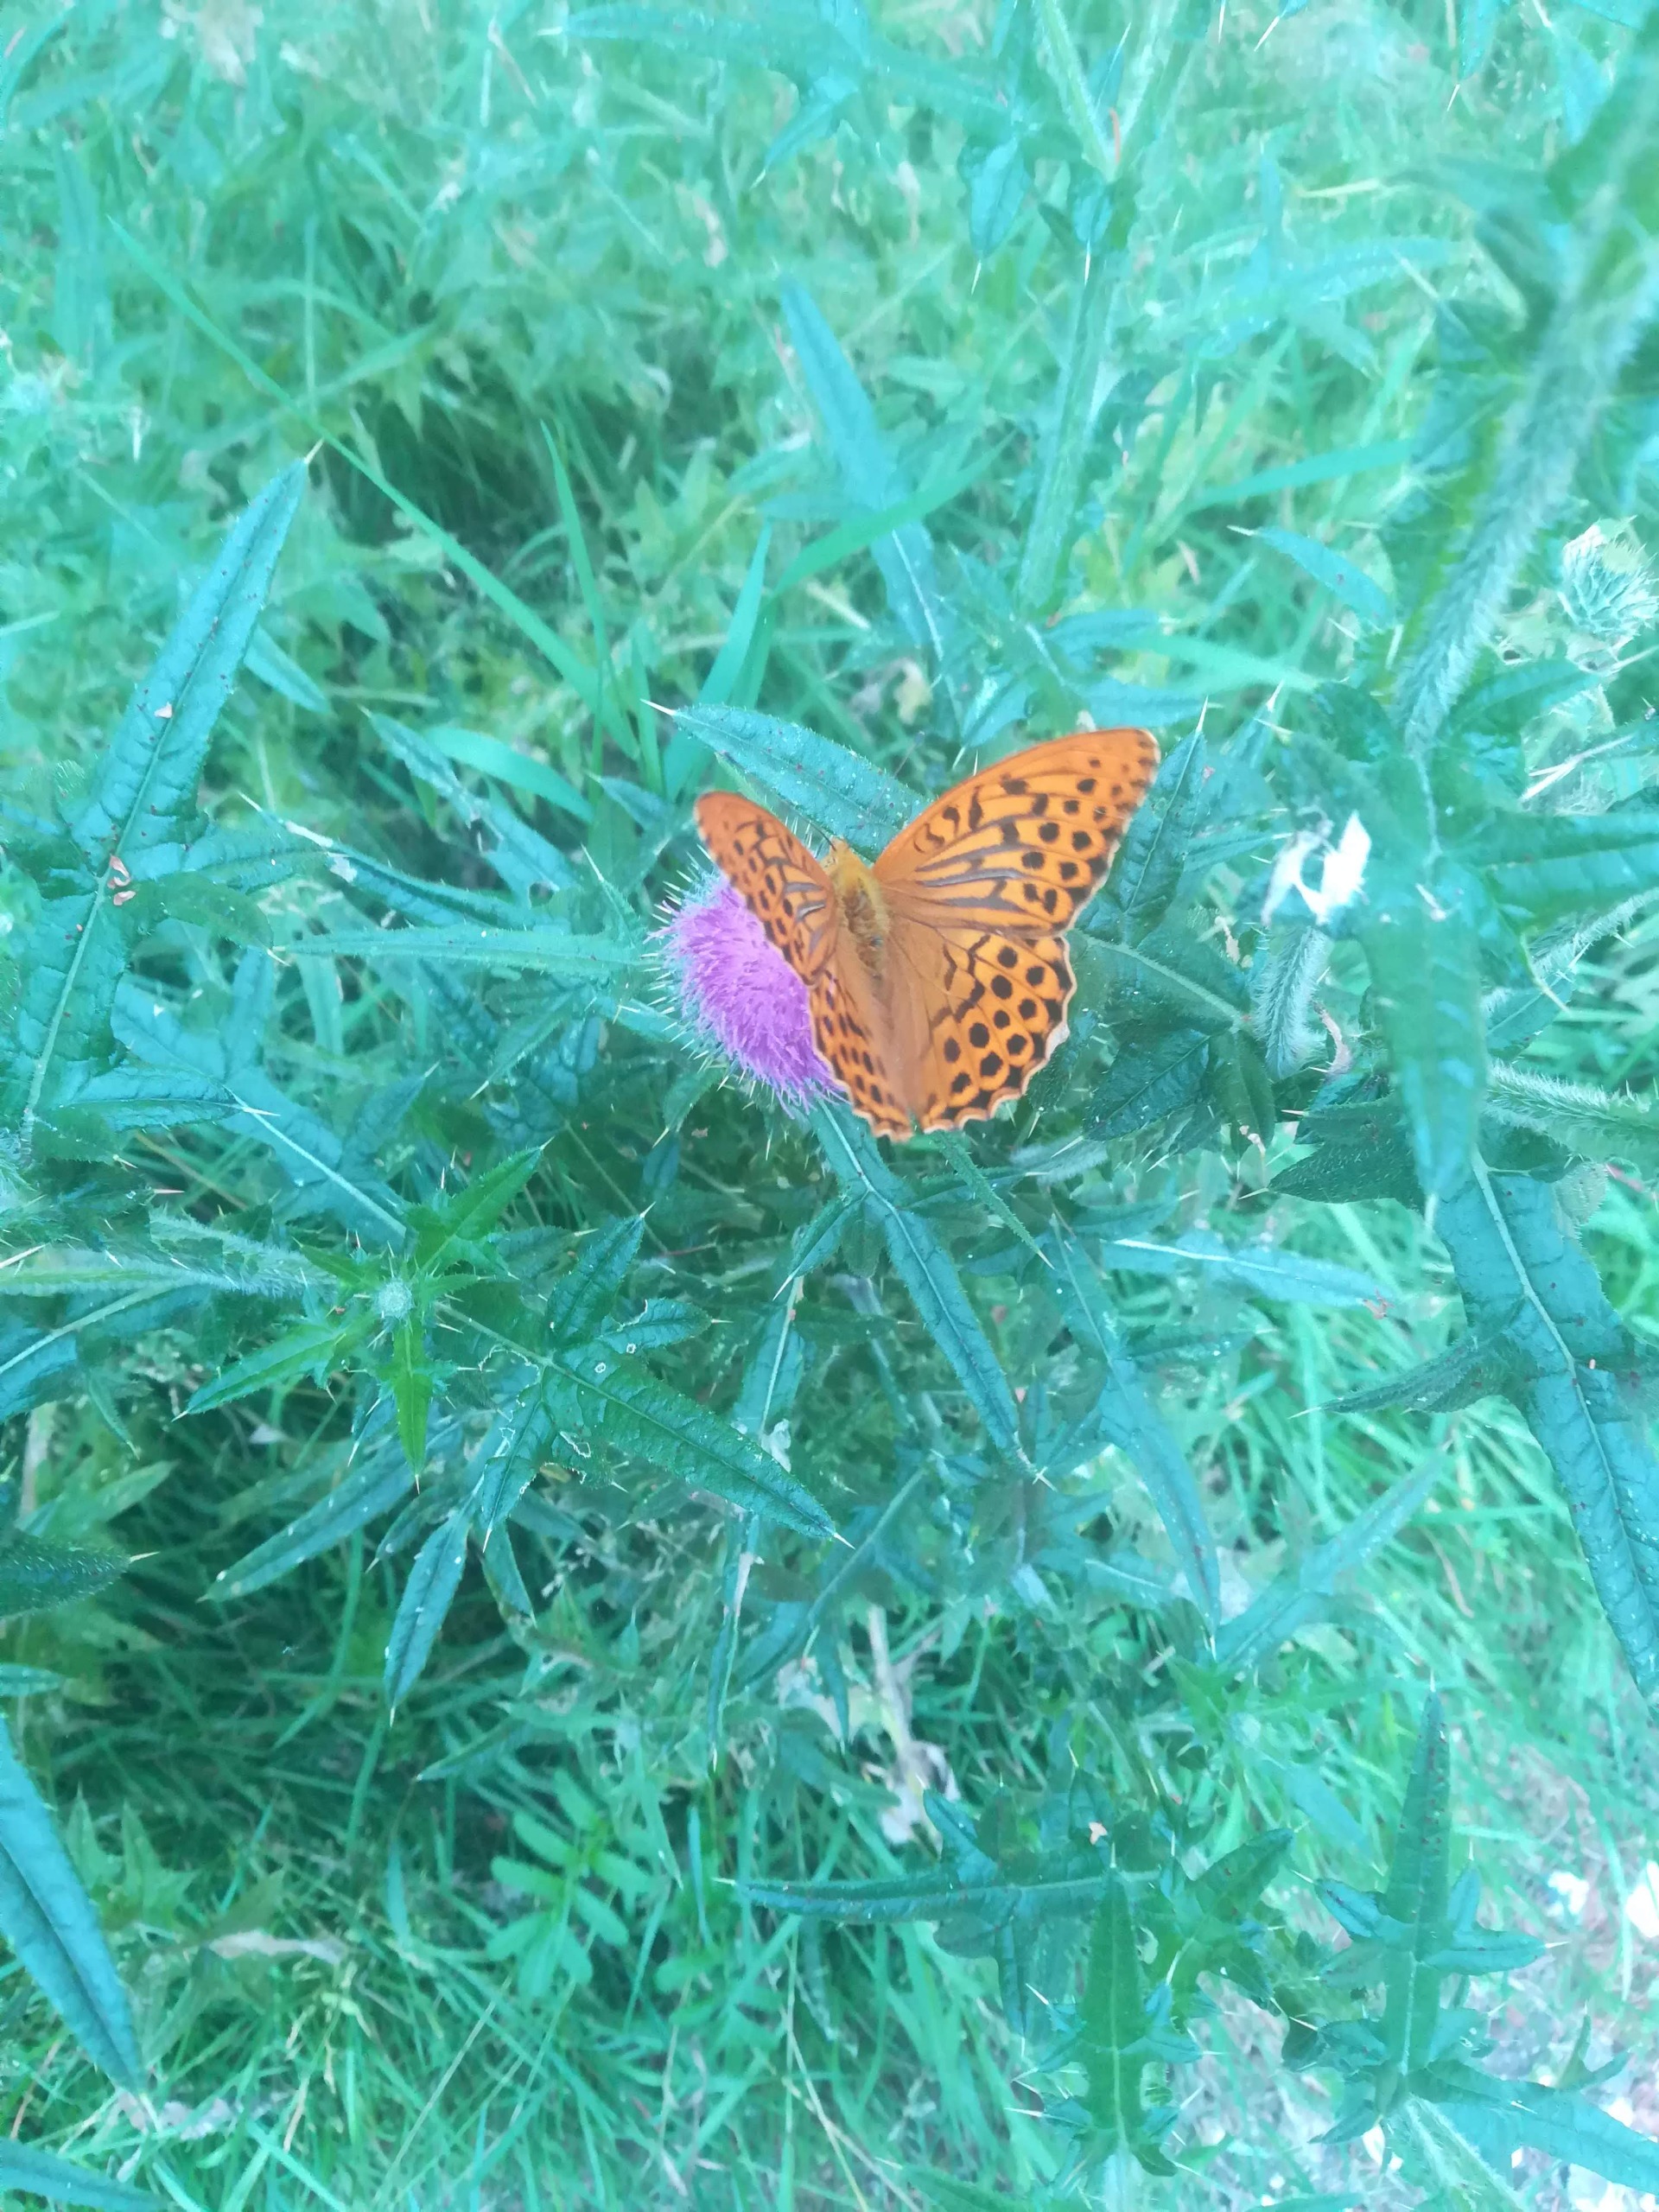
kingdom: Animalia
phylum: Arthropoda
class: Insecta
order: Lepidoptera
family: Nymphalidae
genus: Argynnis
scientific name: Argynnis paphia
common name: Kejserkåbe
